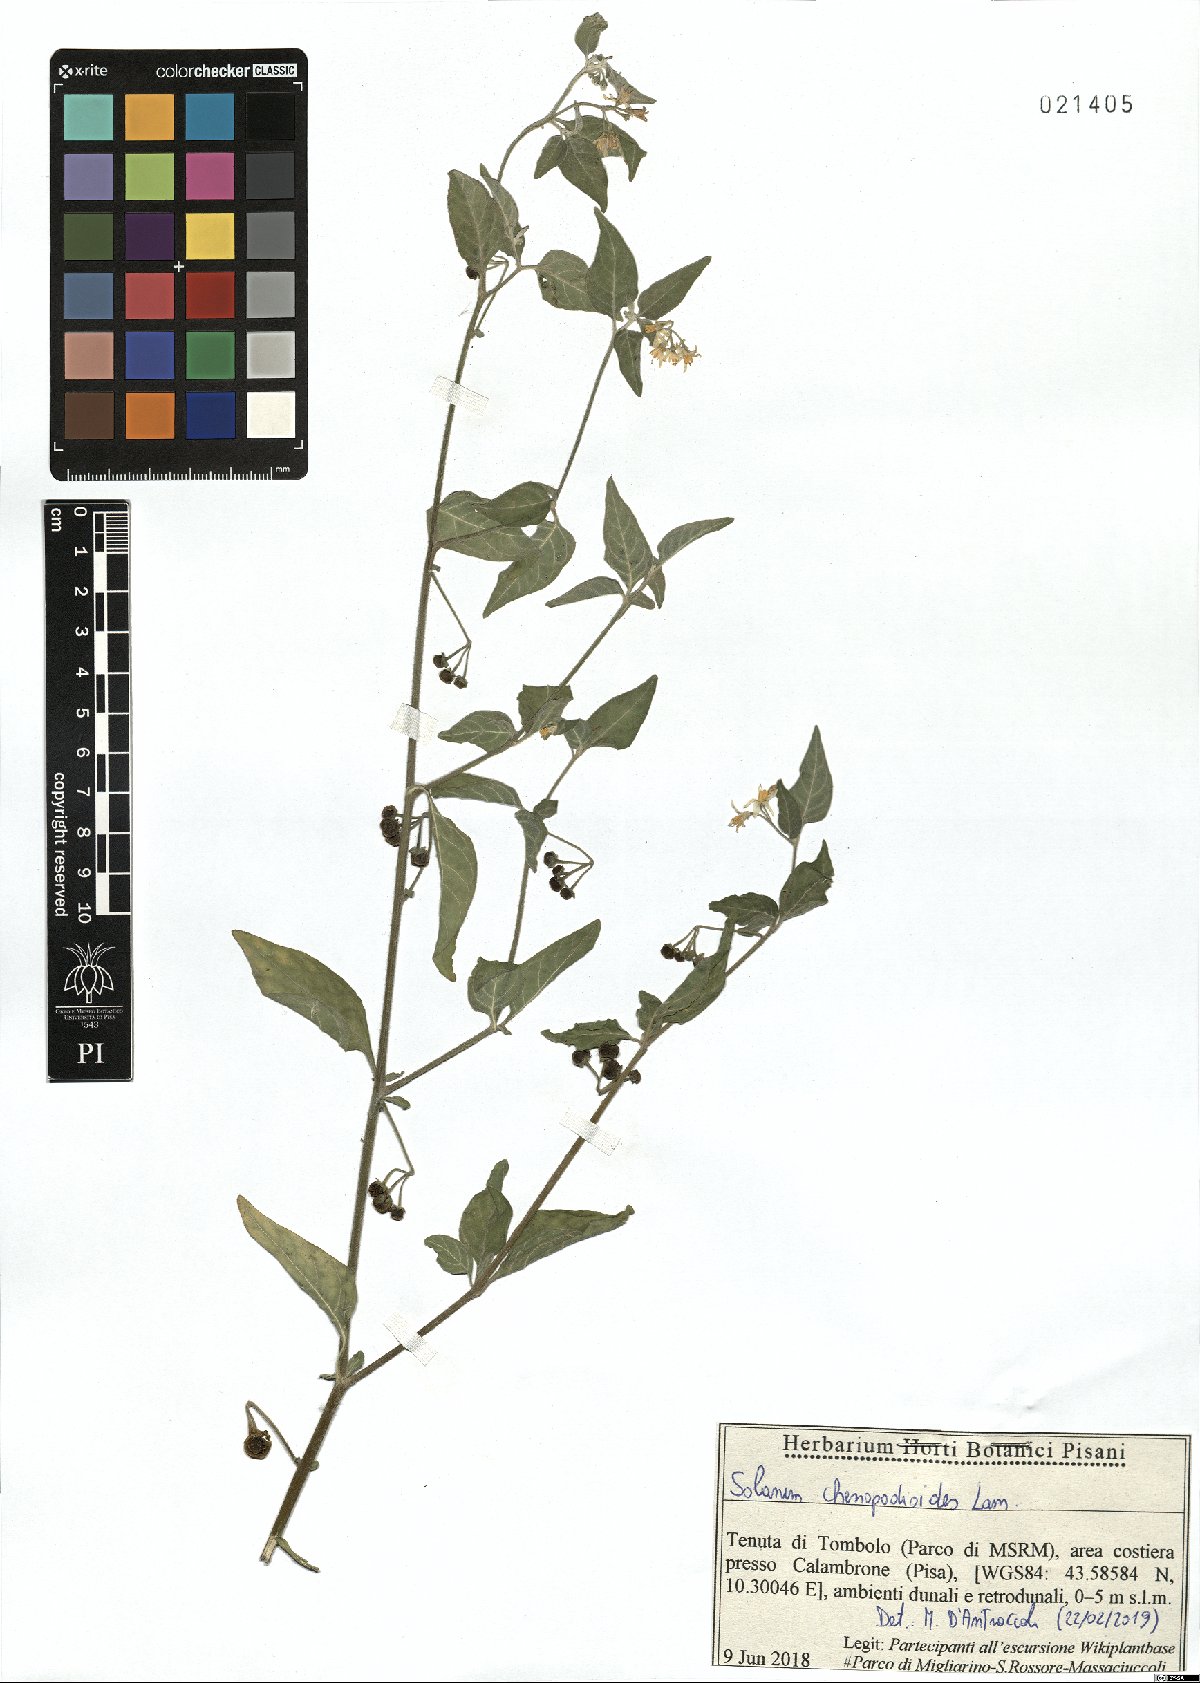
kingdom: Plantae
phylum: Tracheophyta
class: Magnoliopsida
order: Solanales
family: Solanaceae
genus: Solanum
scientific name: Solanum chenopodioides
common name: Tall nightshade
